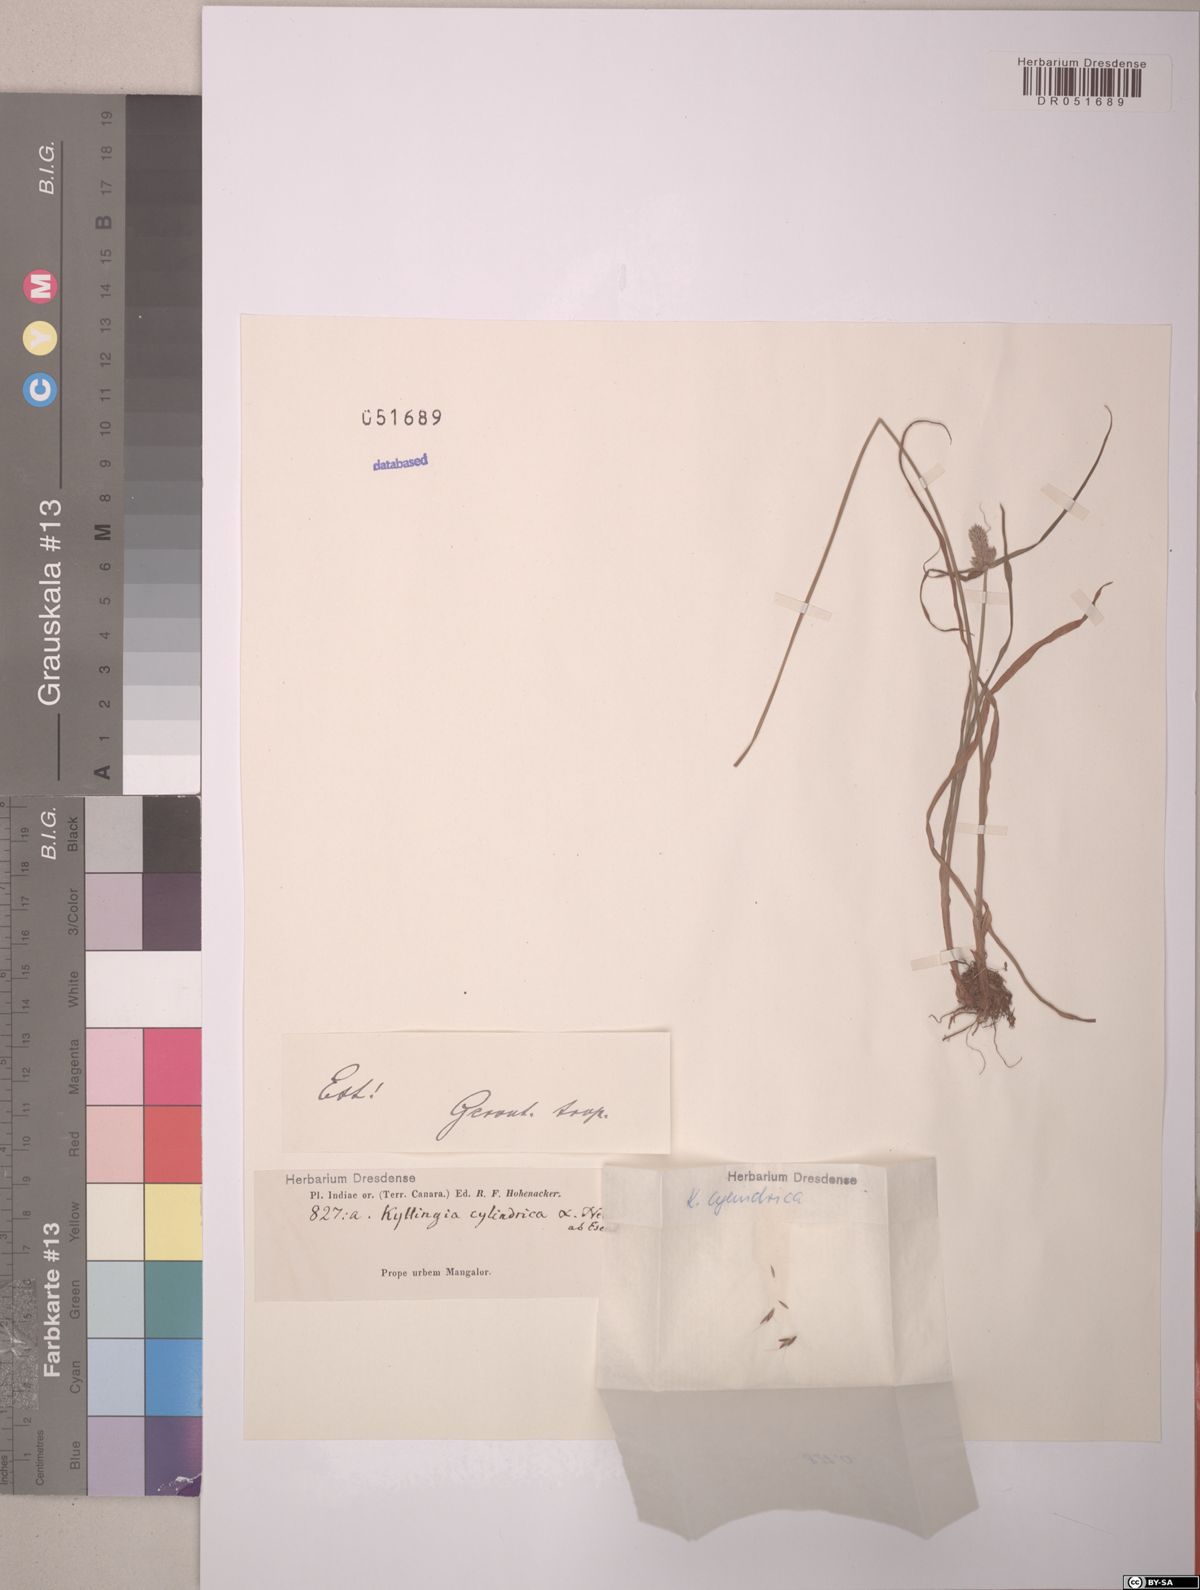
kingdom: Plantae
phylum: Tracheophyta
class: Liliopsida
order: Poales
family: Cyperaceae
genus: Cyperus
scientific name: Cyperus sesquiflorus
